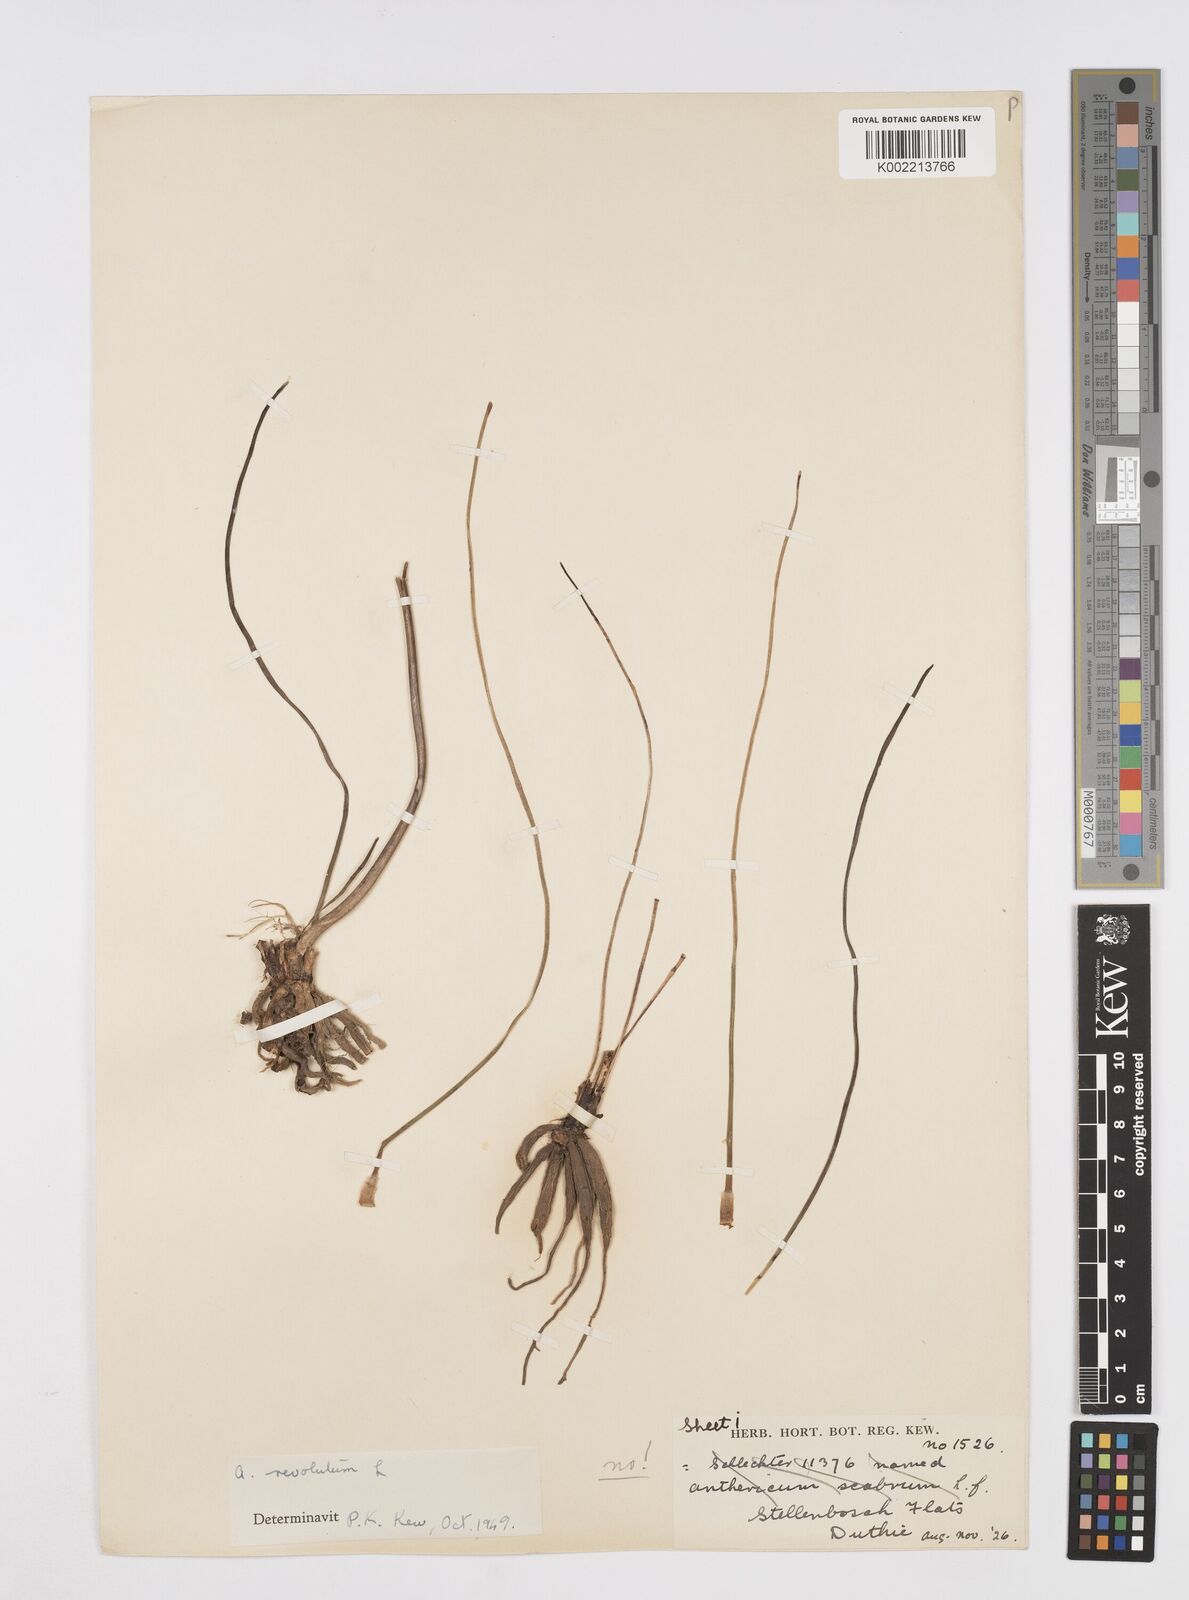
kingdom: Plantae
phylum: Tracheophyta
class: Liliopsida
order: Asparagales
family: Asphodelaceae
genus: Trachyandra
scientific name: Trachyandra revoluta
